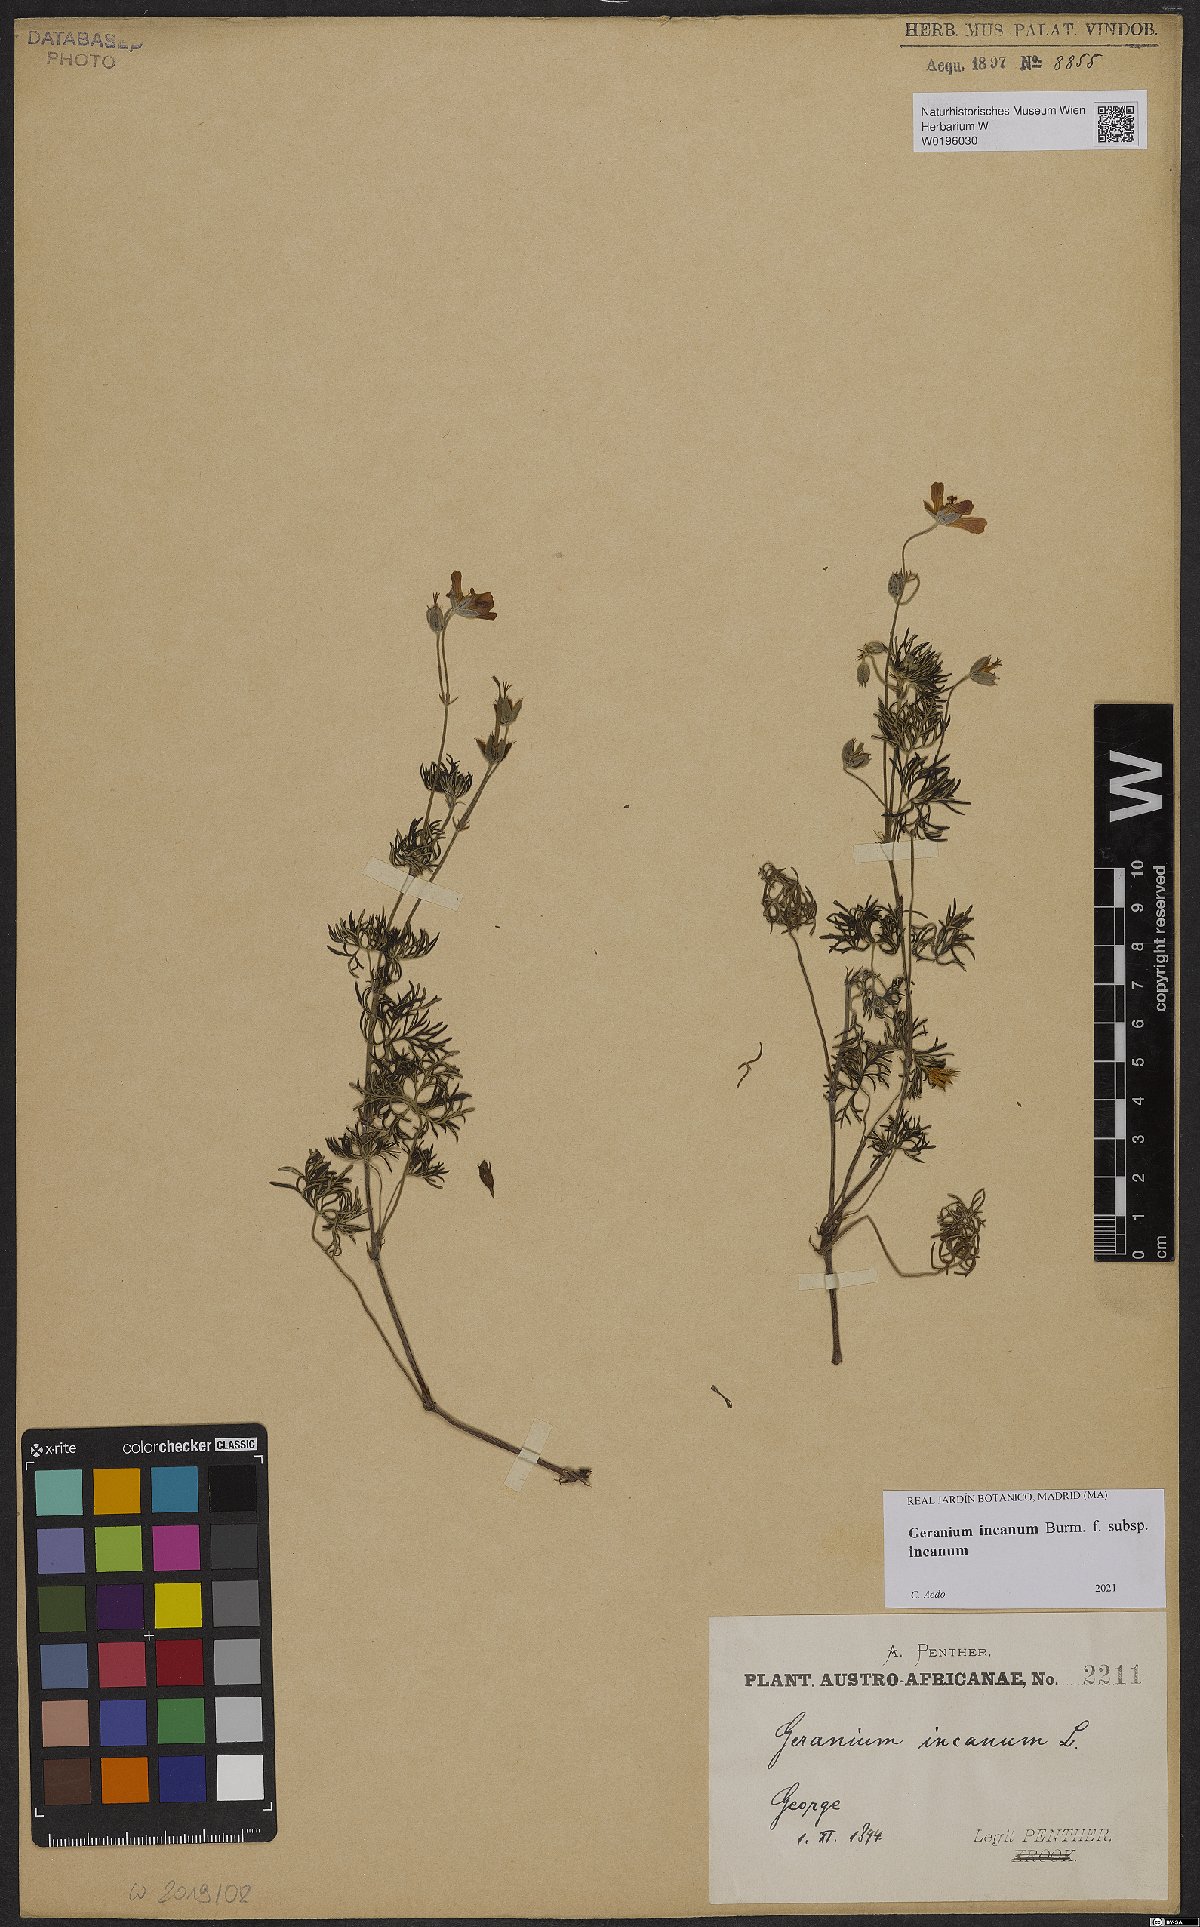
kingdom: Plantae
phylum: Tracheophyta
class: Magnoliopsida
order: Geraniales
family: Geraniaceae
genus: Geranium
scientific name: Geranium incanum
